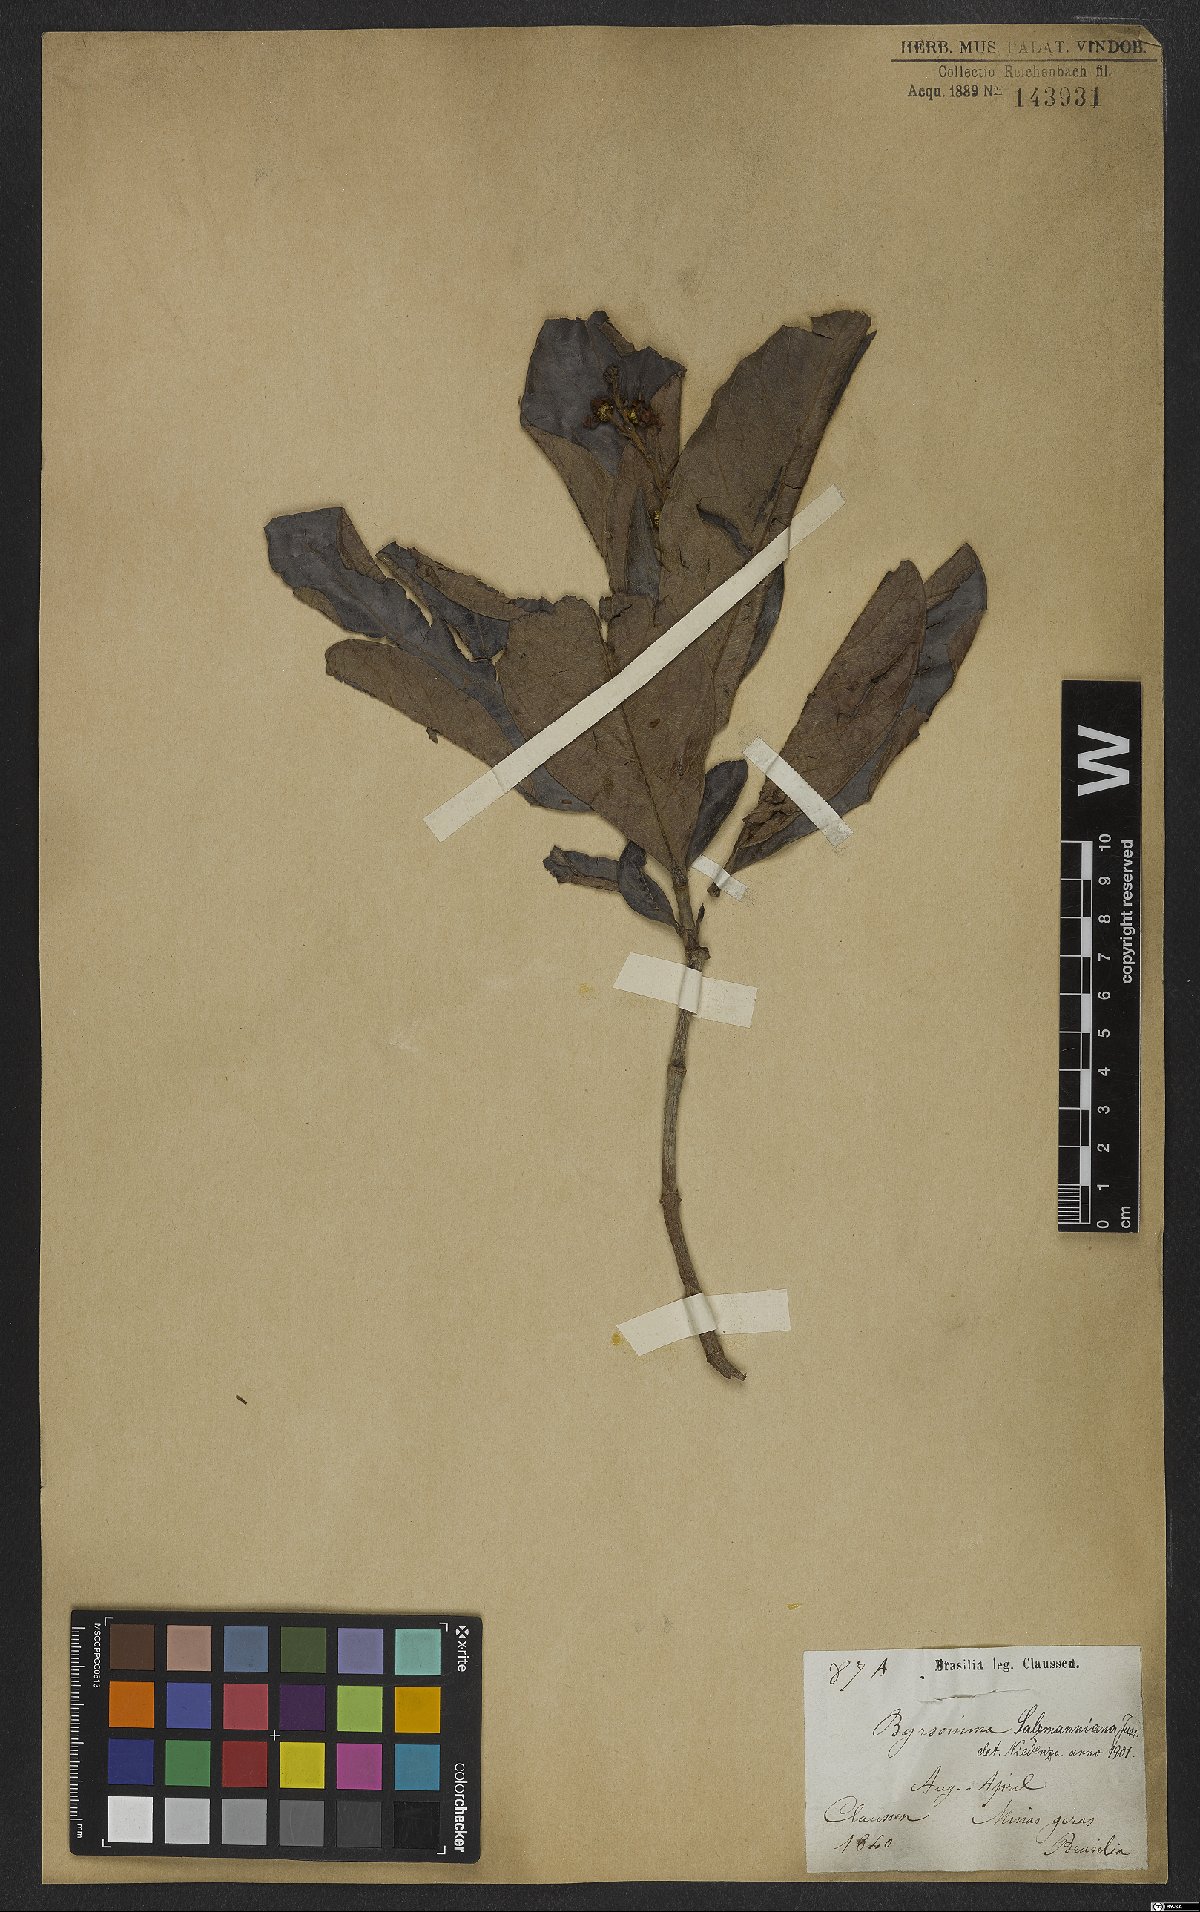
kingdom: Plantae
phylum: Tracheophyta
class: Magnoliopsida
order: Malpighiales
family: Malpighiaceae
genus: Byrsonima
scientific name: Byrsonima salzmanniana
